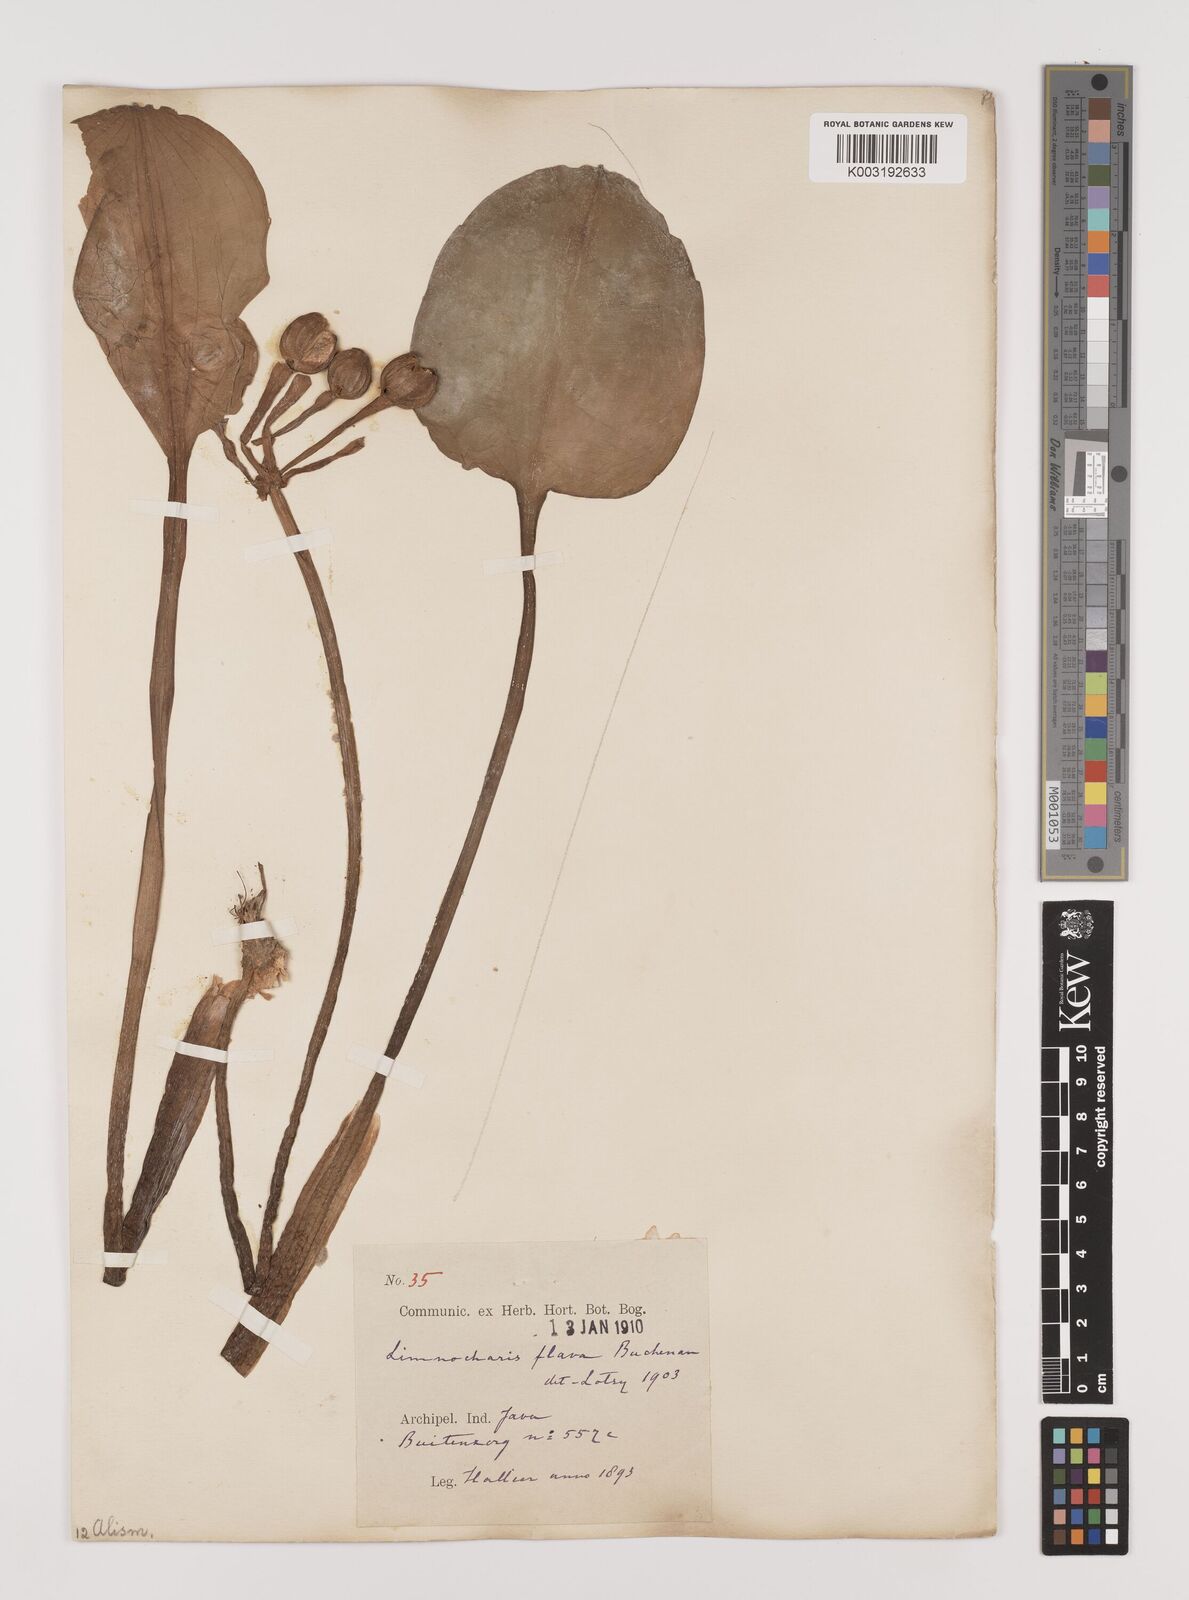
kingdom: Plantae
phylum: Tracheophyta
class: Liliopsida
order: Alismatales
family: Alismataceae
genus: Limnocharis
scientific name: Limnocharis flava
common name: Sawah-flower-rush
